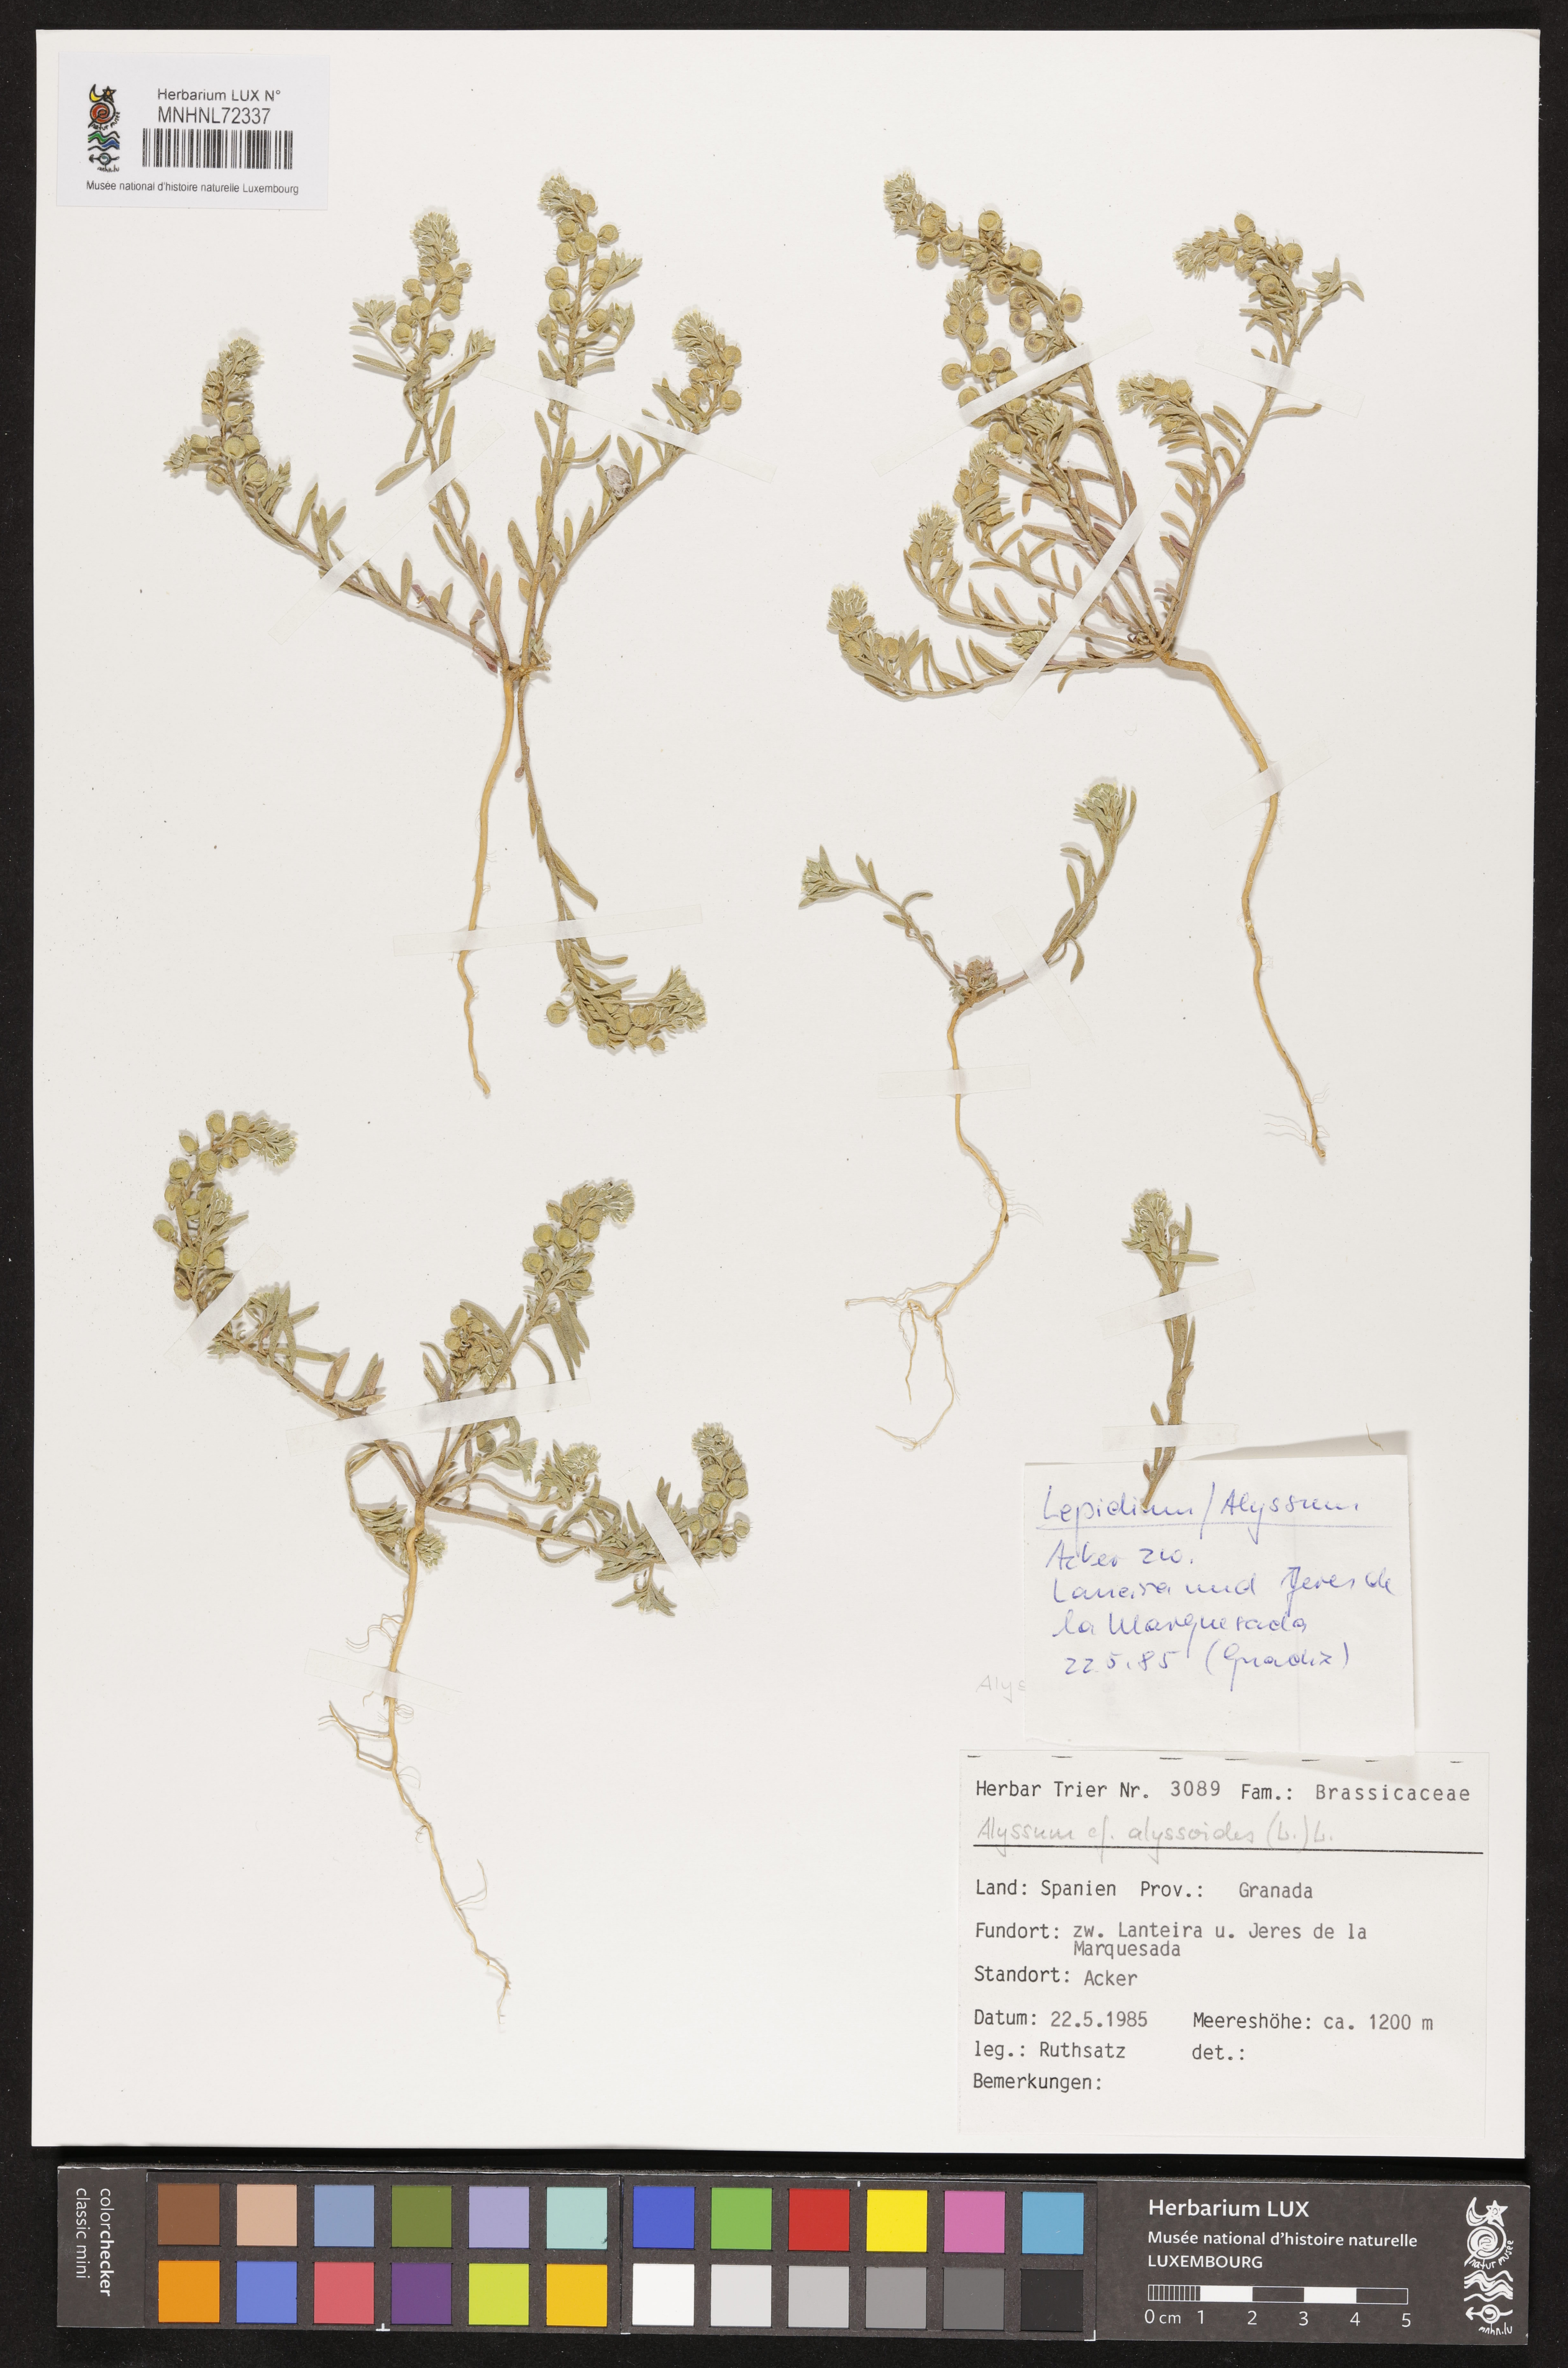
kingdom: Plantae
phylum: Tracheophyta
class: Magnoliopsida
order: Brassicales
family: Brassicaceae
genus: Alyssum
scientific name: Alyssum alyssoides
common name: Small alison
